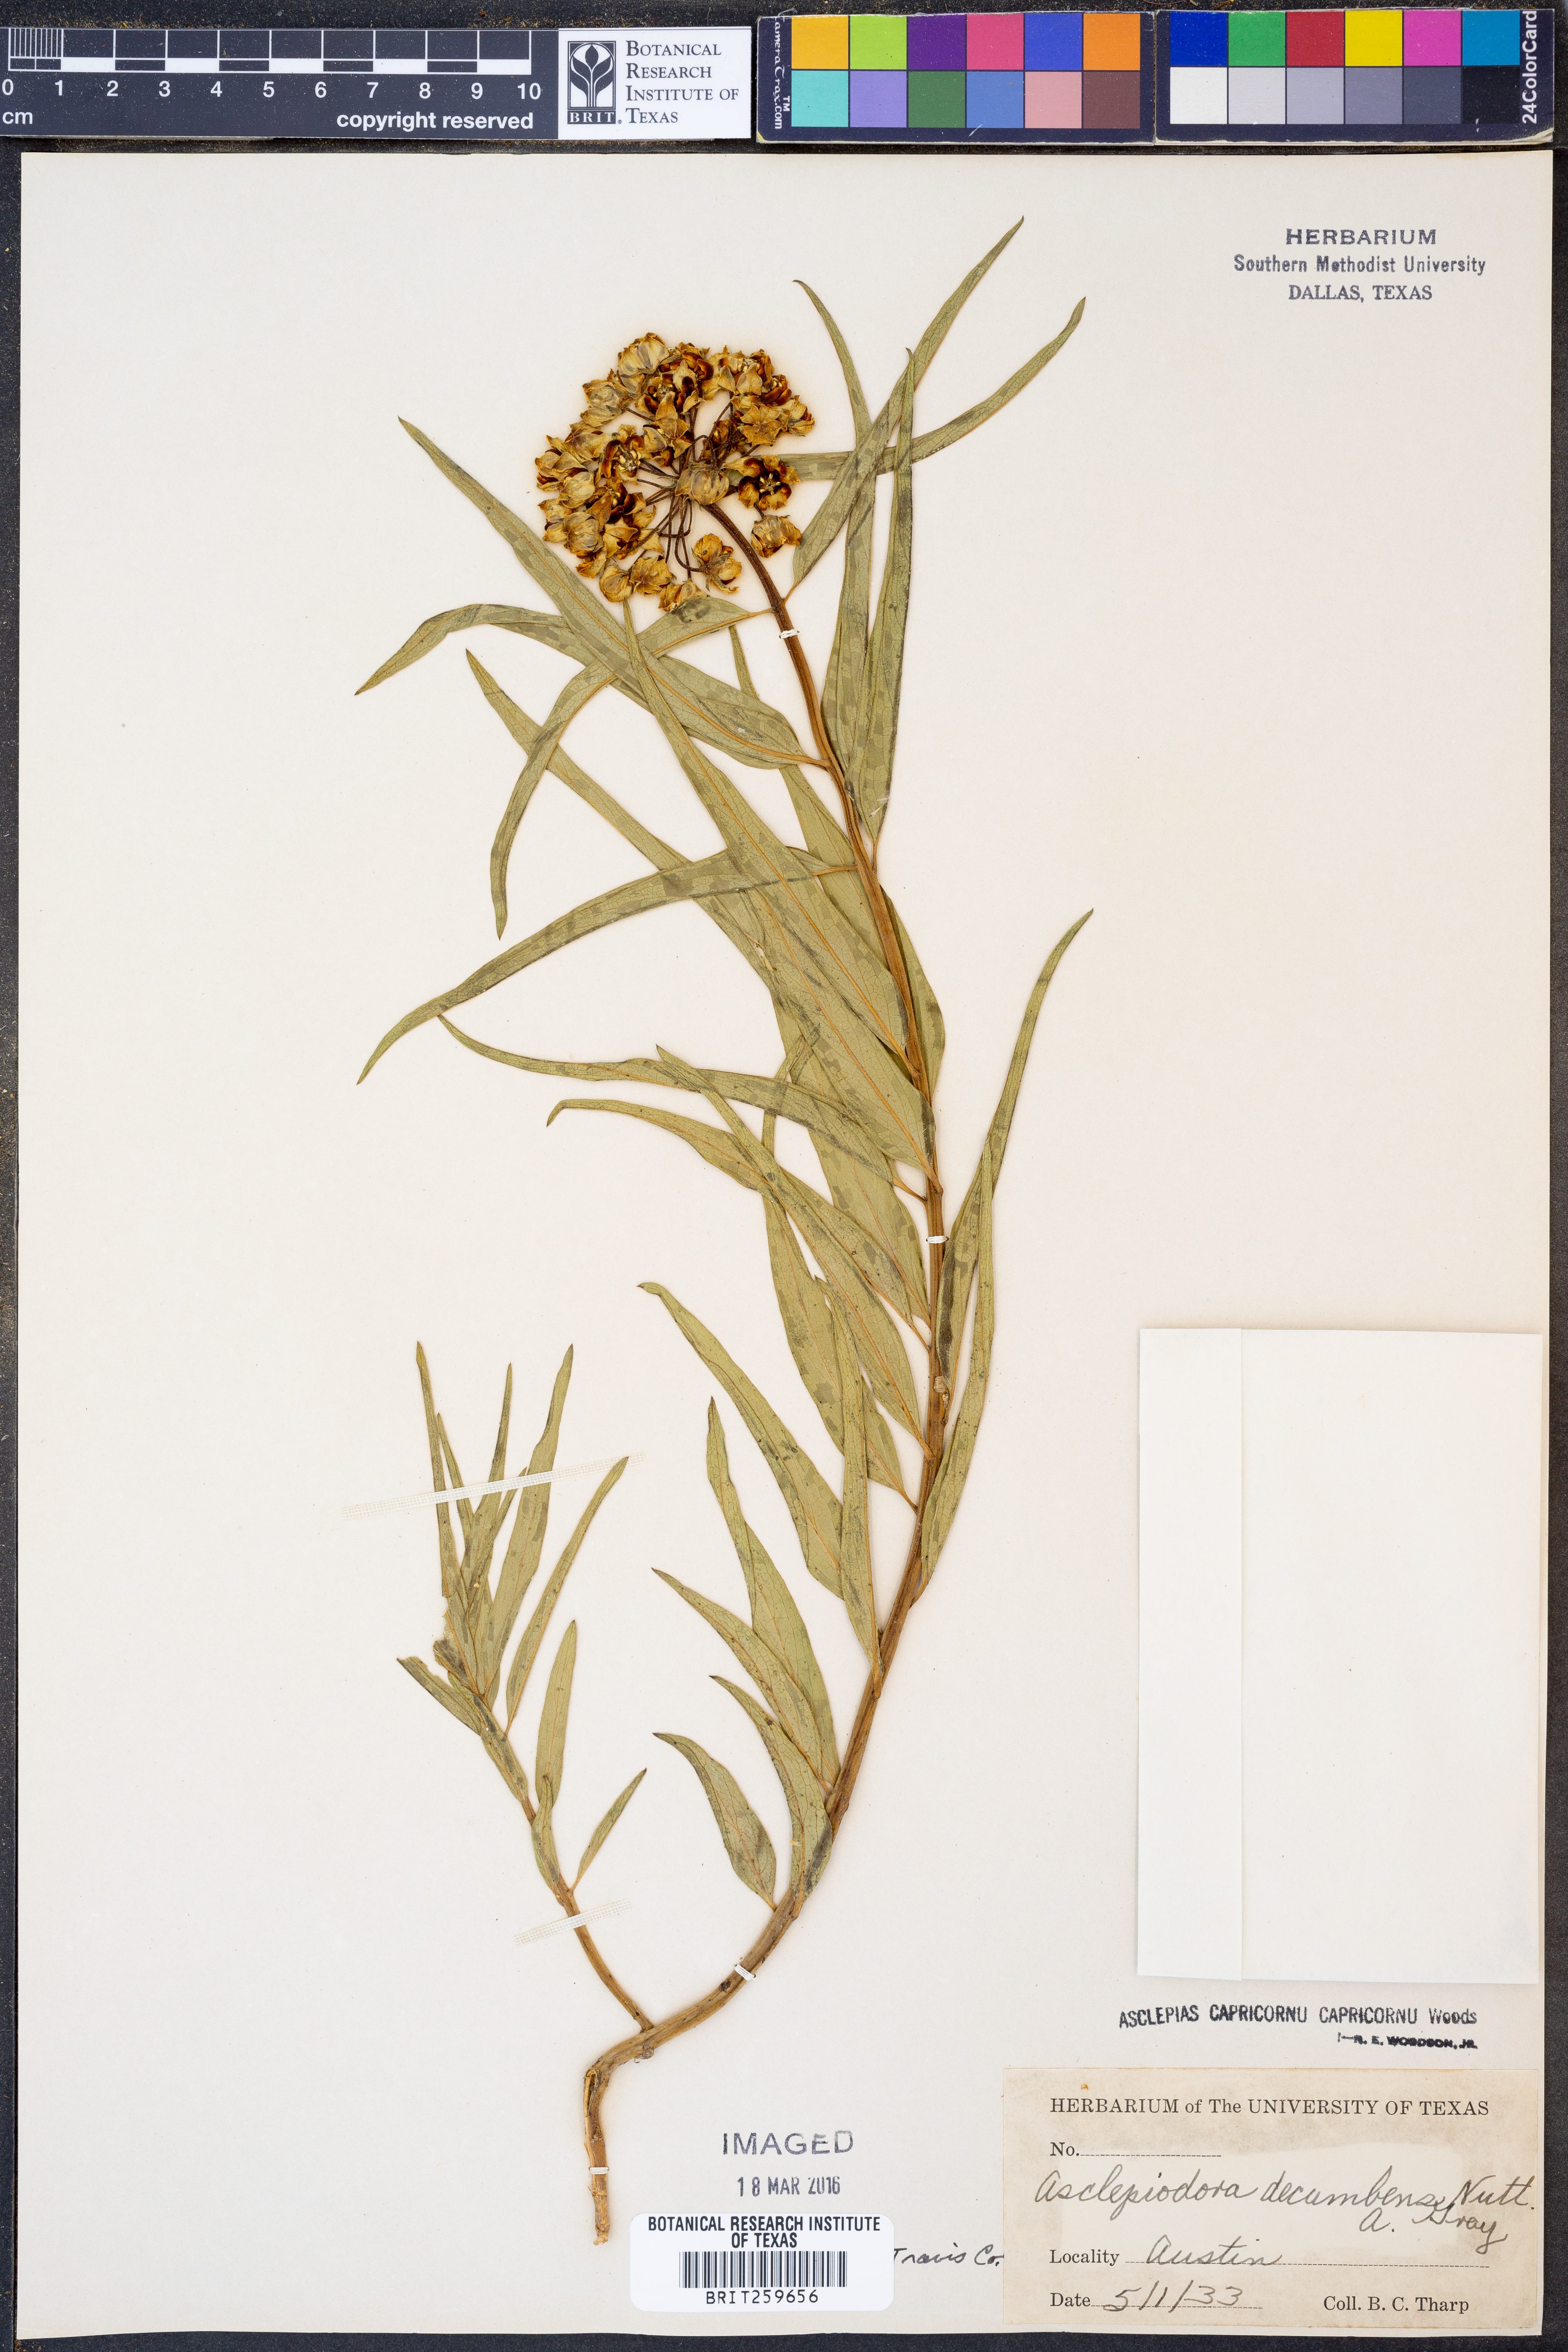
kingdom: Plantae
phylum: Tracheophyta
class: Magnoliopsida
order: Gentianales
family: Apocynaceae
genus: Asclepias
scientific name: Asclepias asperula
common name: Antelope horns
